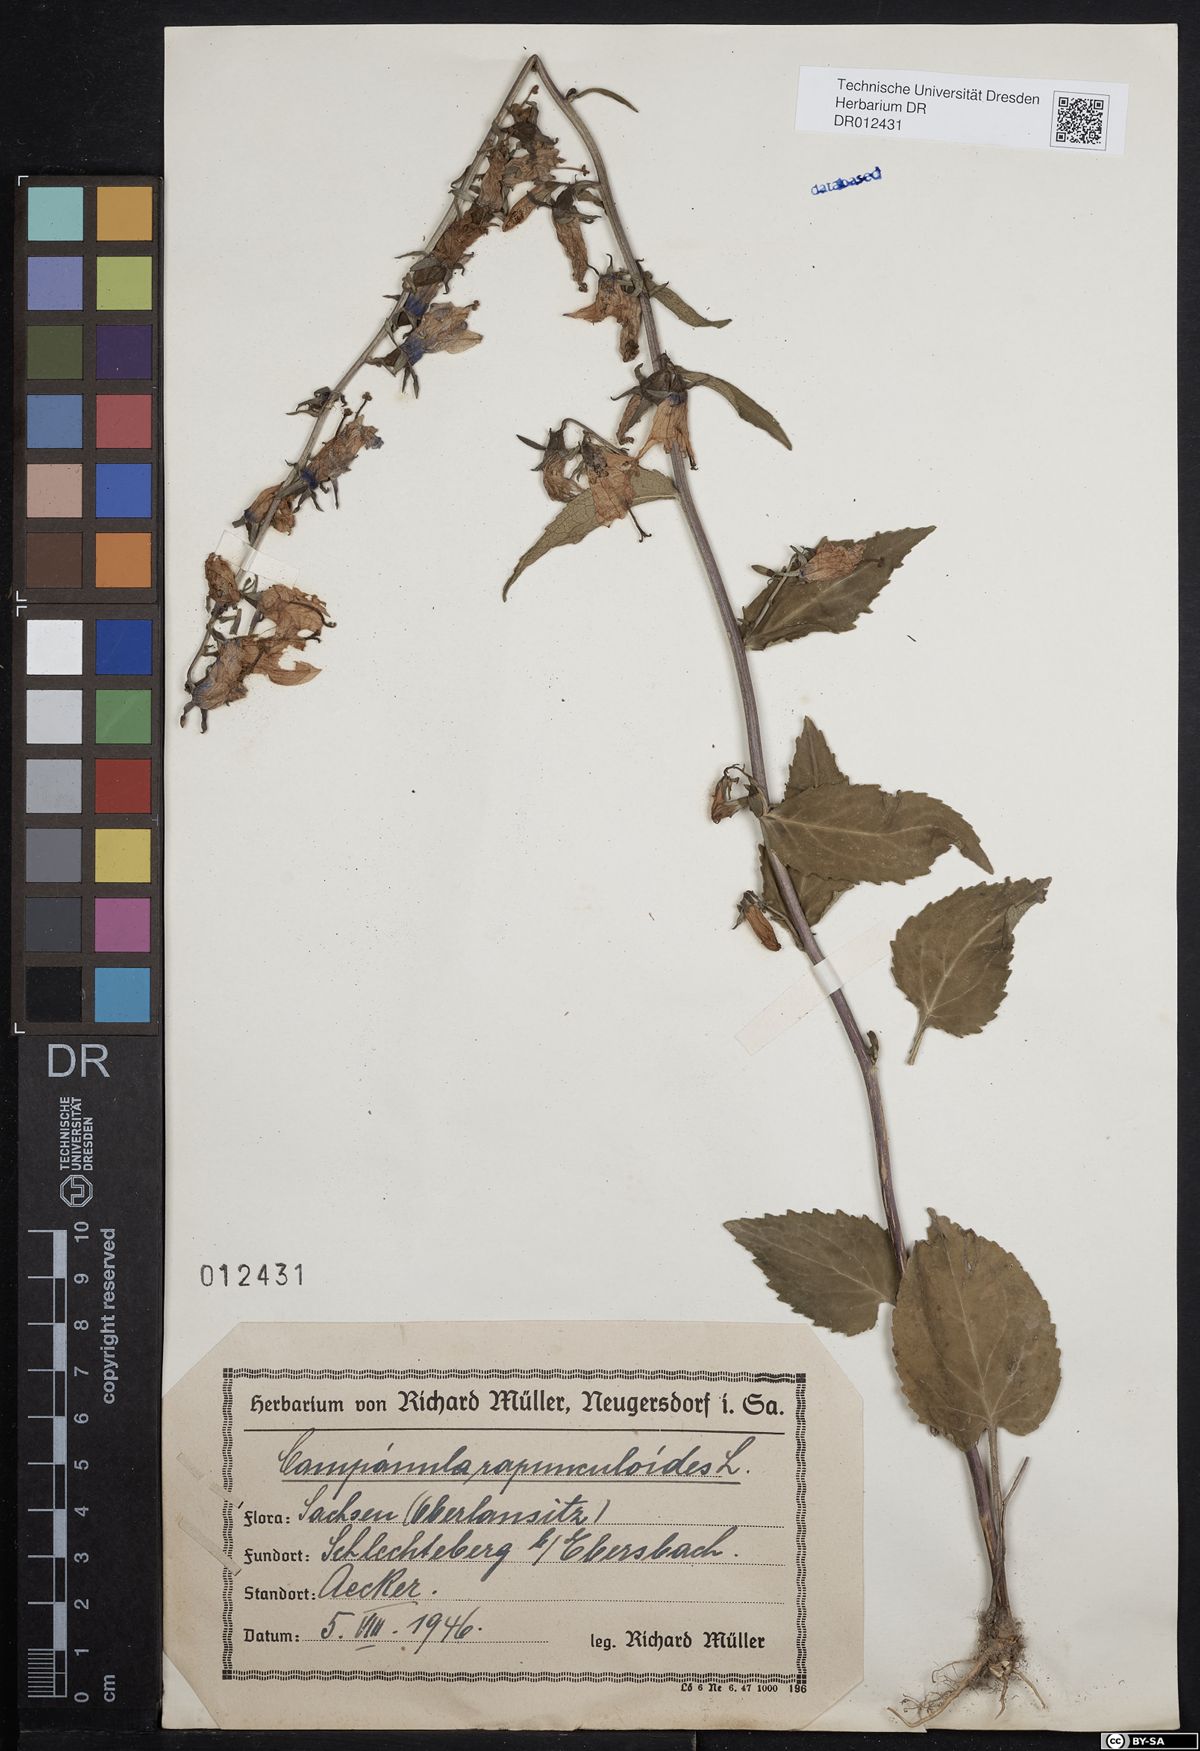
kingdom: Plantae
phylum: Tracheophyta
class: Magnoliopsida
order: Asterales
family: Campanulaceae
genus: Campanula
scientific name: Campanula rapunculoides
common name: Creeping bellflower
